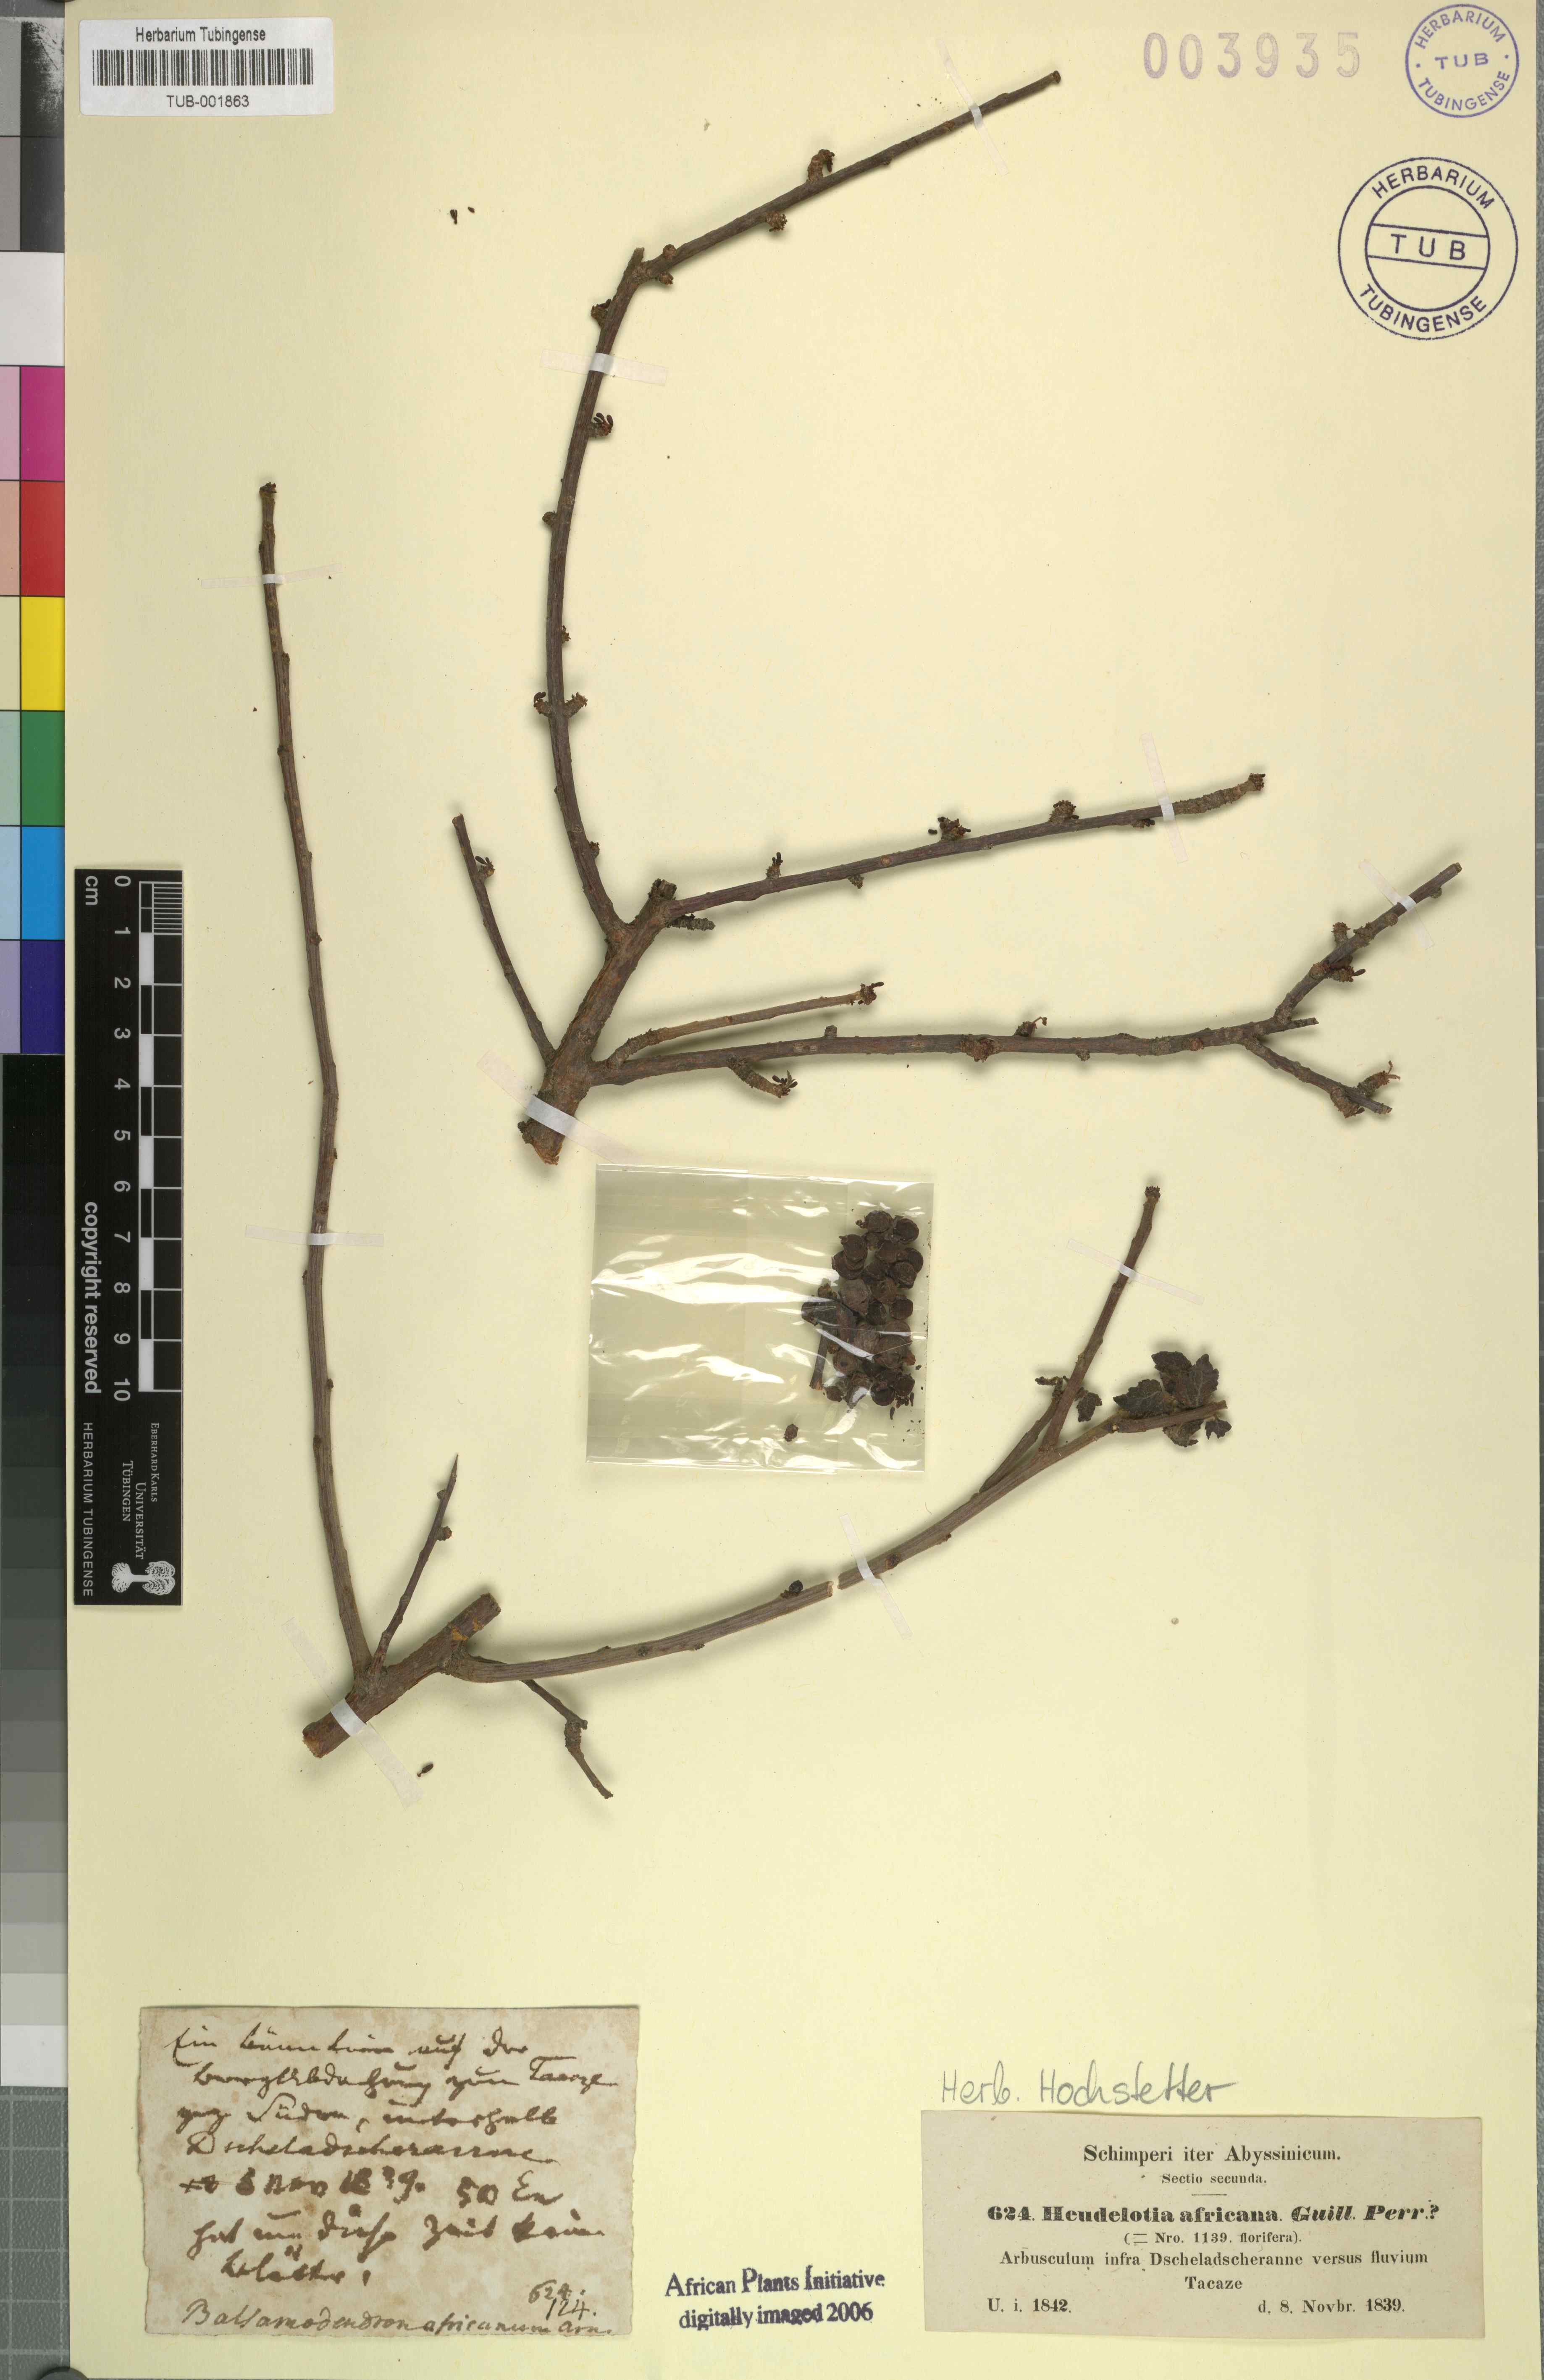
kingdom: Plantae
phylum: Tracheophyta
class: Magnoliopsida
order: Sapindales
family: Burseraceae
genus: Commiphora
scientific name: Commiphora africana
